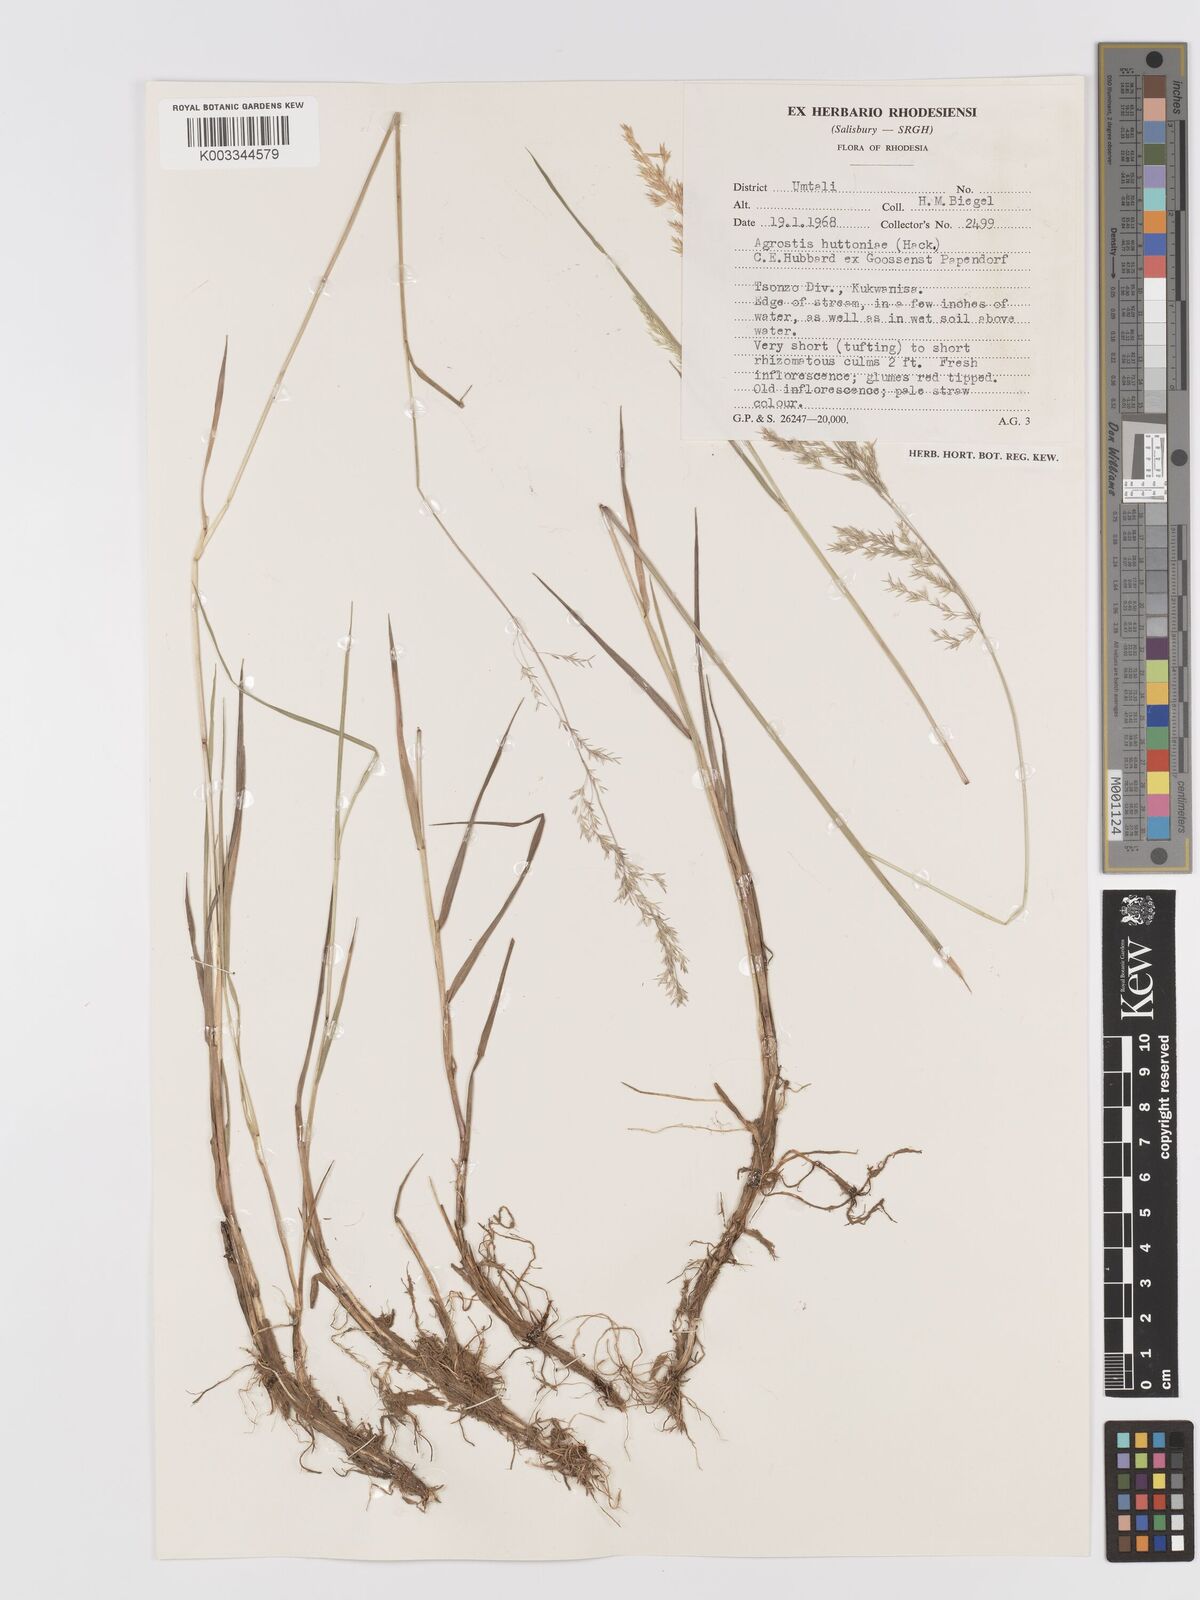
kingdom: Plantae
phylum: Tracheophyta
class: Liliopsida
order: Poales
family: Poaceae
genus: Lachnagrostis
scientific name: Lachnagrostis lachnantha
